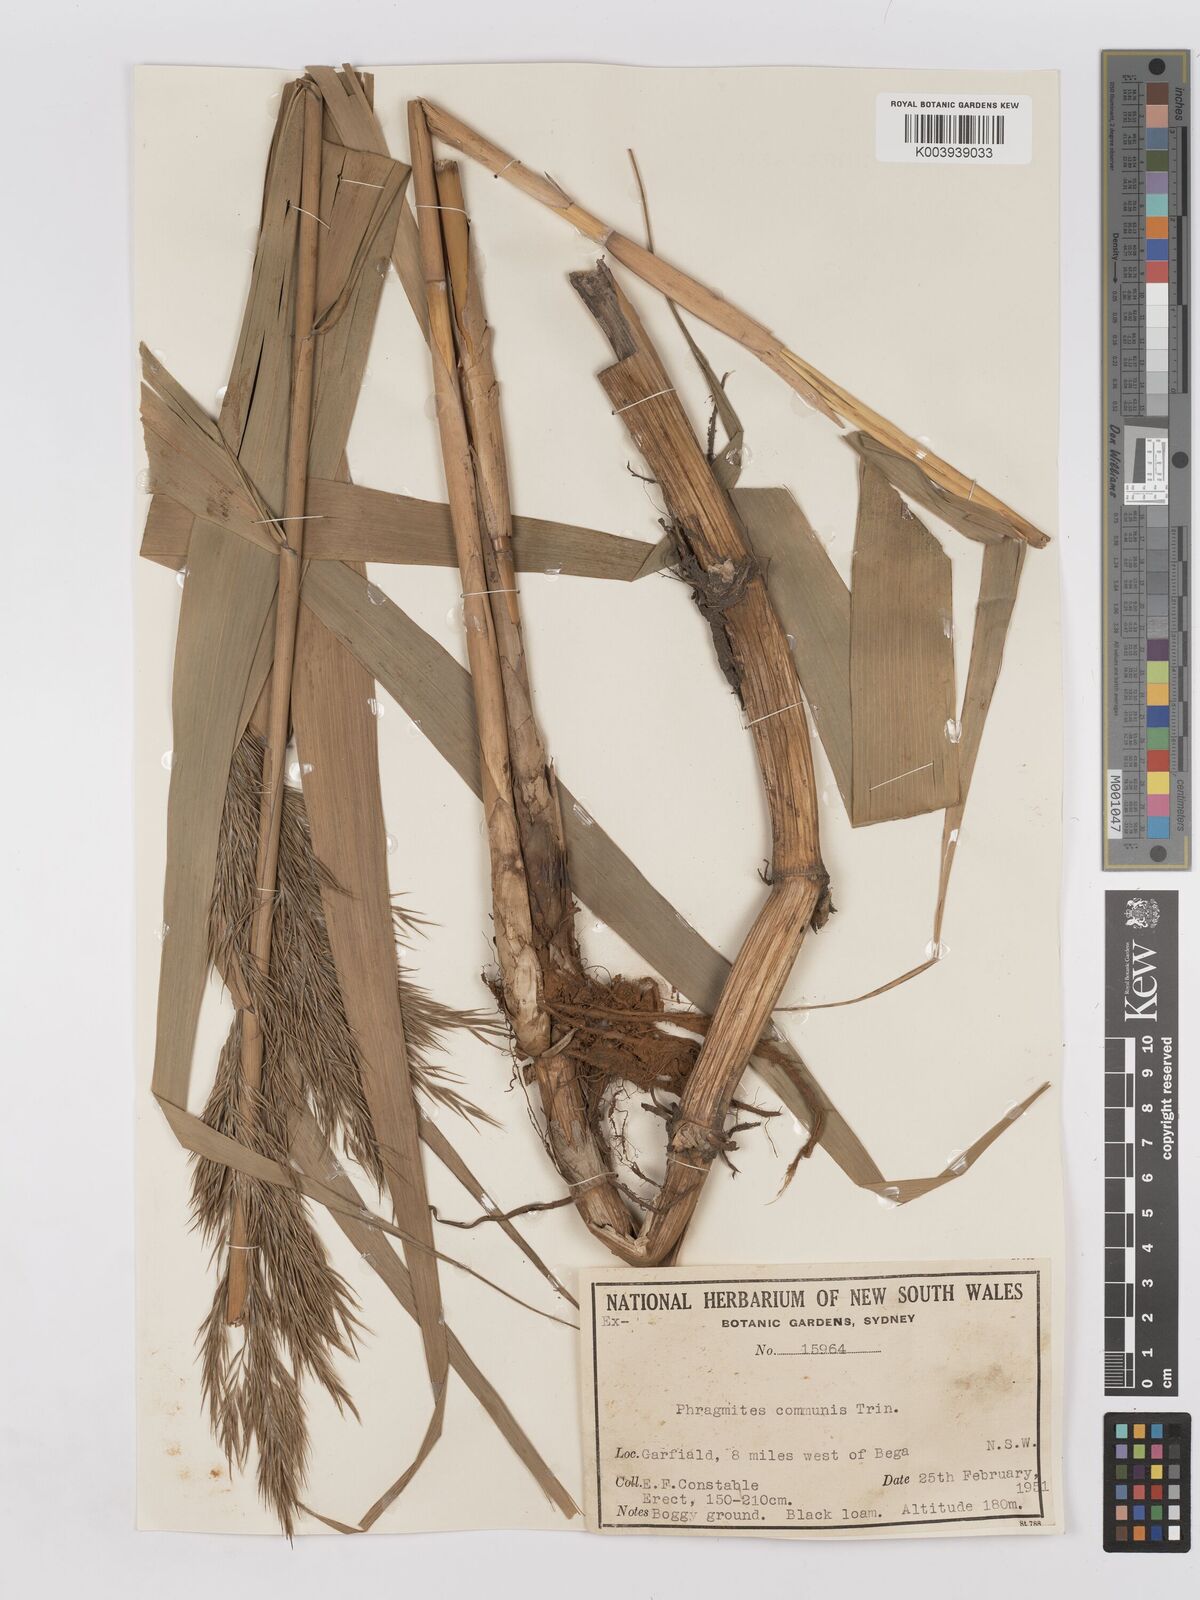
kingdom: Plantae
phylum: Tracheophyta
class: Liliopsida
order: Poales
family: Poaceae
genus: Phragmites
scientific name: Phragmites australis
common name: Common reed
